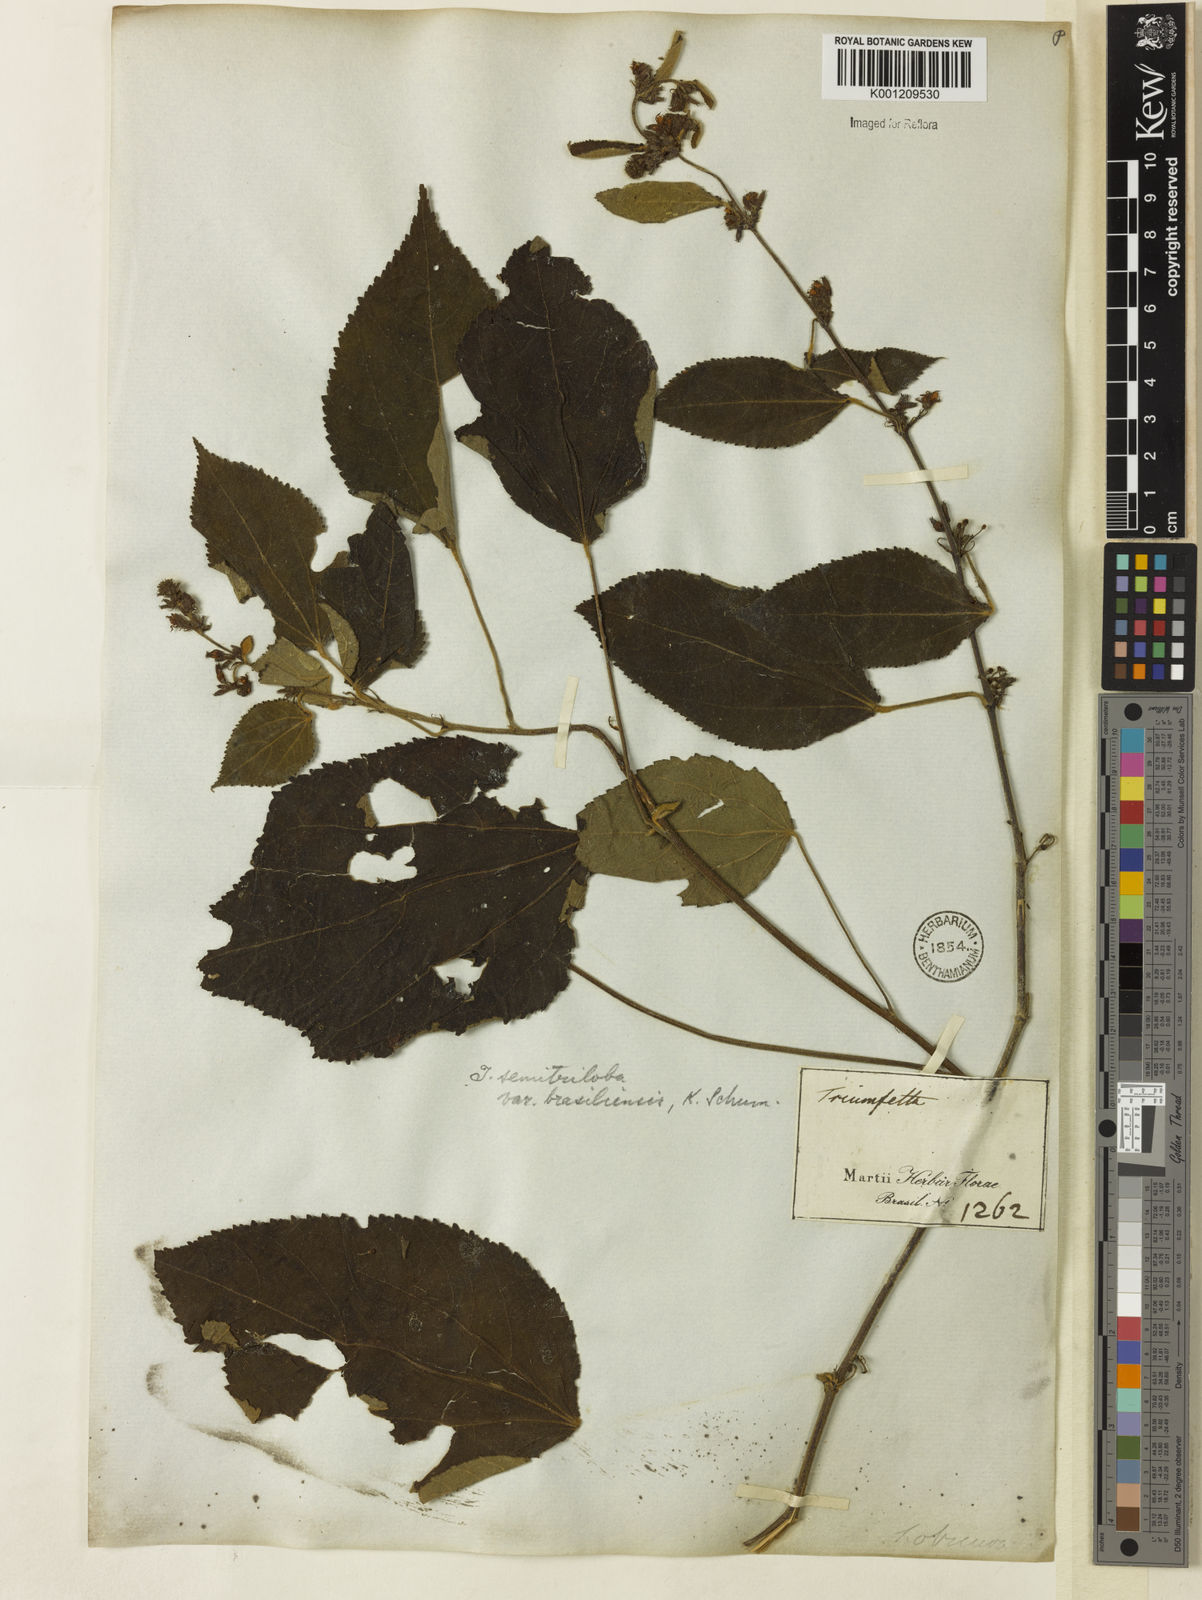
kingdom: Plantae
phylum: Tracheophyta
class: Magnoliopsida
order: Malvales
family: Malvaceae
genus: Triumfetta
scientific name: Triumfetta semitriloba
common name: Sacramento burbark
